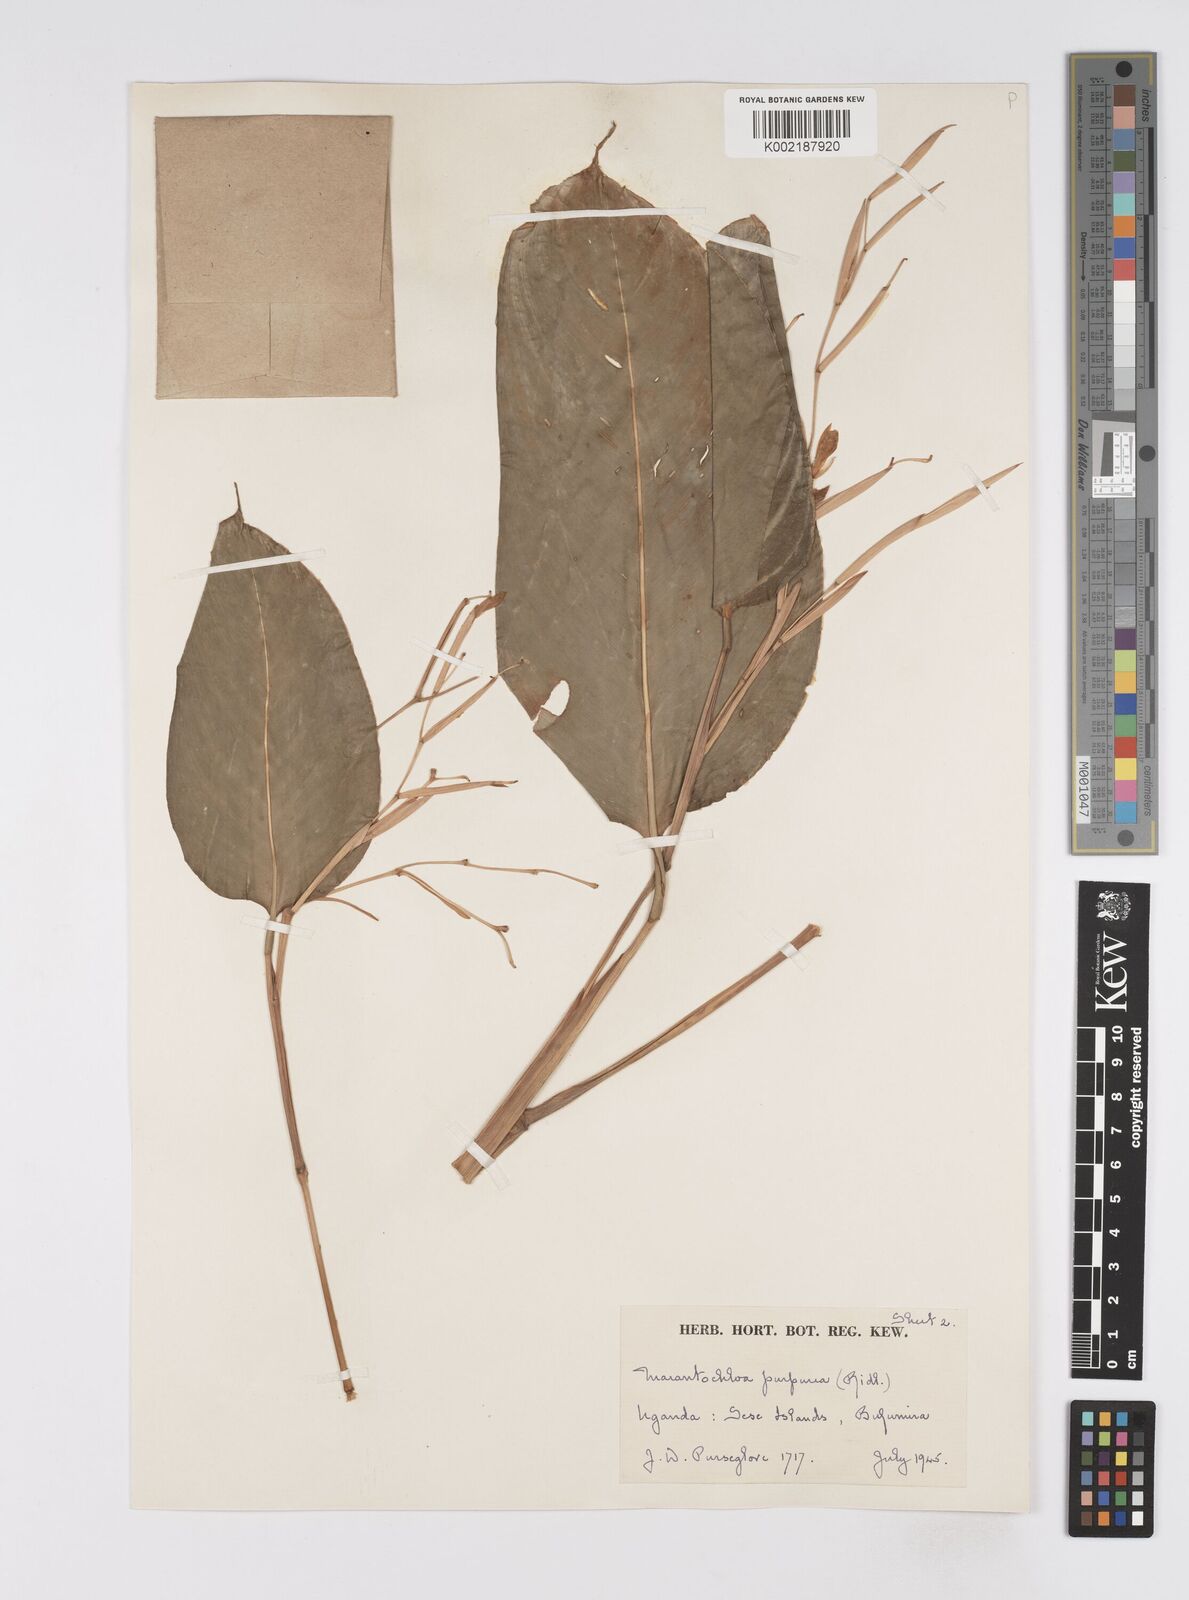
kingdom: Plantae
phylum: Tracheophyta
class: Liliopsida
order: Zingiberales
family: Marantaceae
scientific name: Marantaceae
